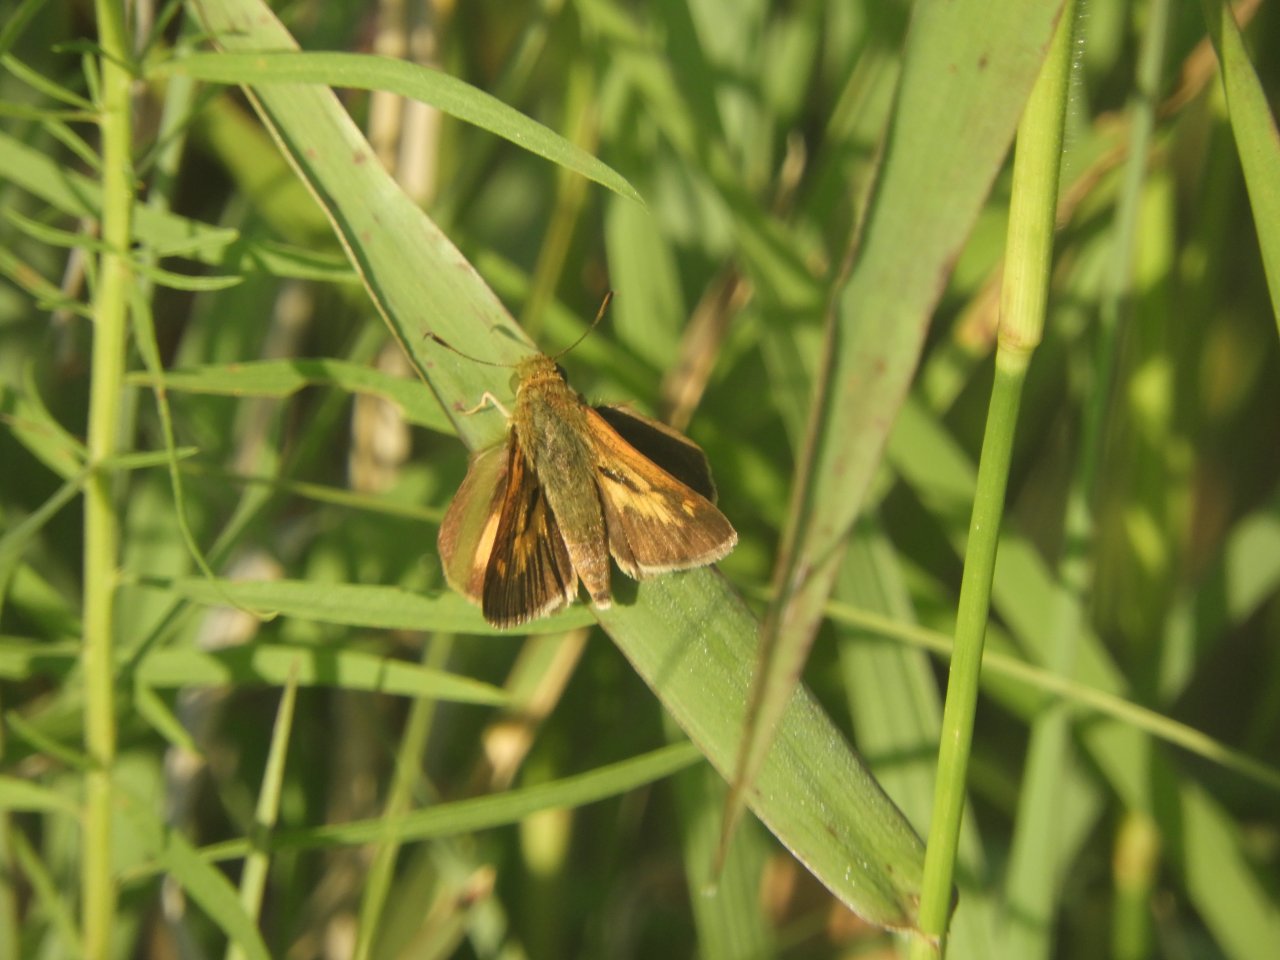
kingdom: Animalia
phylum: Arthropoda
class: Insecta
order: Lepidoptera
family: Hesperiidae
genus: Euphyes
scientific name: Euphyes dion
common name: Dion Skipper
